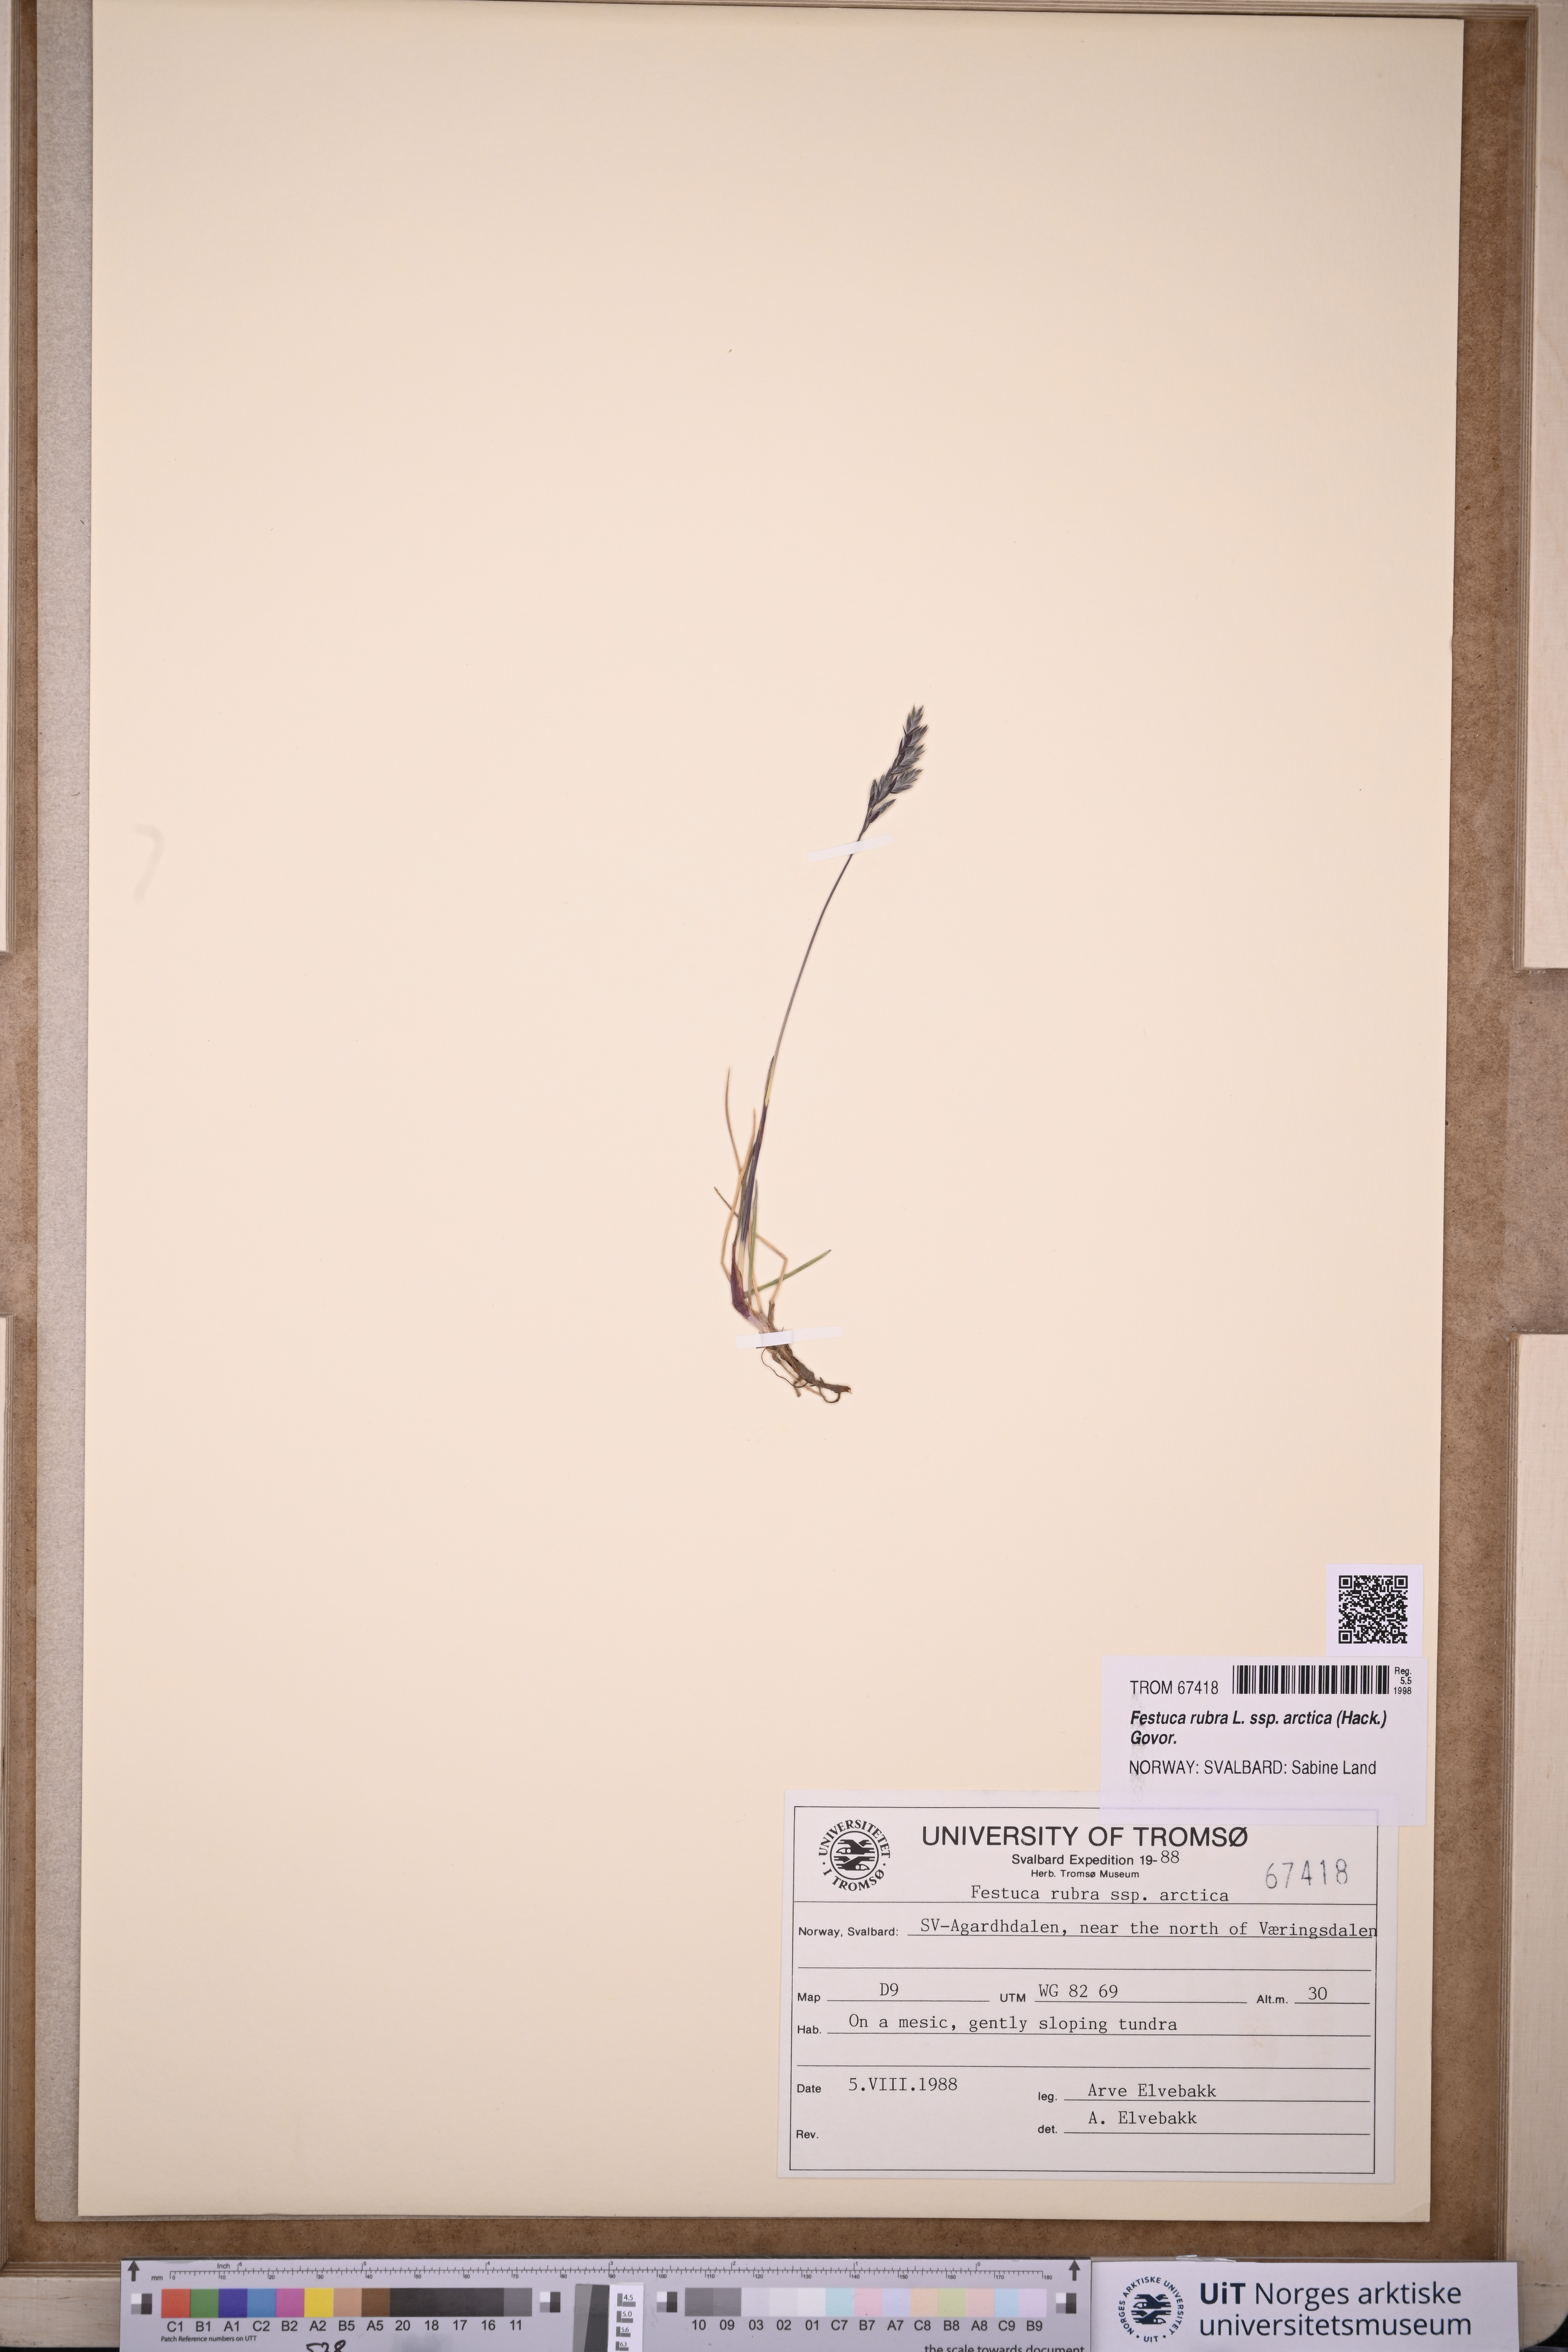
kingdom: Plantae
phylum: Tracheophyta
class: Liliopsida
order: Poales
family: Poaceae
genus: Festuca
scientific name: Festuca richardsonii
